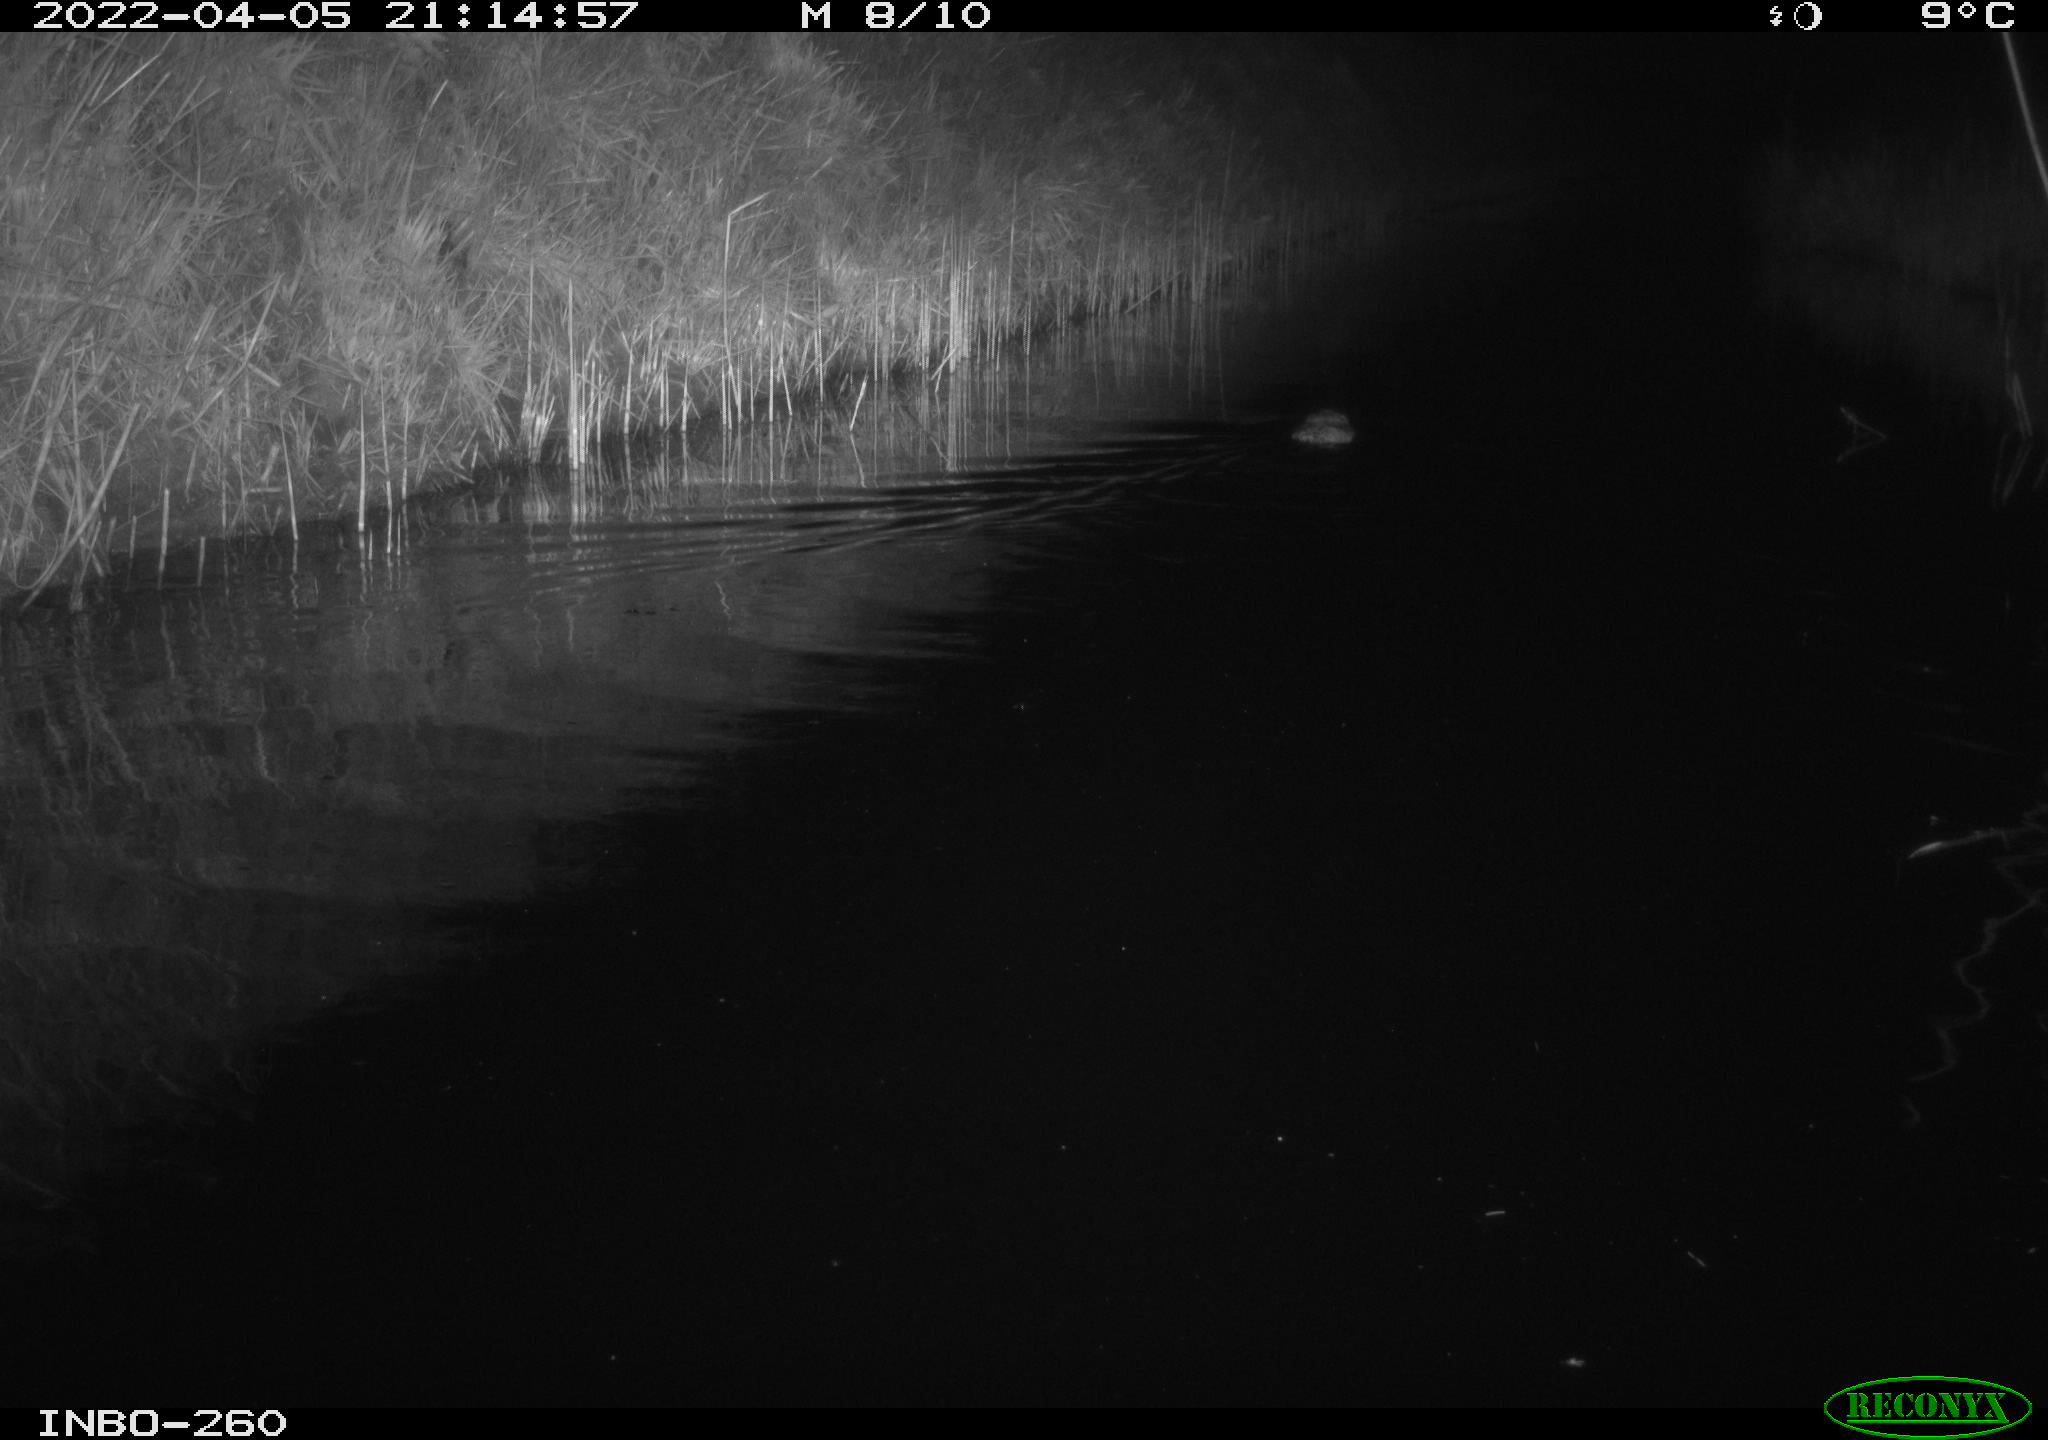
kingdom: Animalia
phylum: Chordata
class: Mammalia
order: Rodentia
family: Cricetidae
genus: Ondatra
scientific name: Ondatra zibethicus
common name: Muskrat
